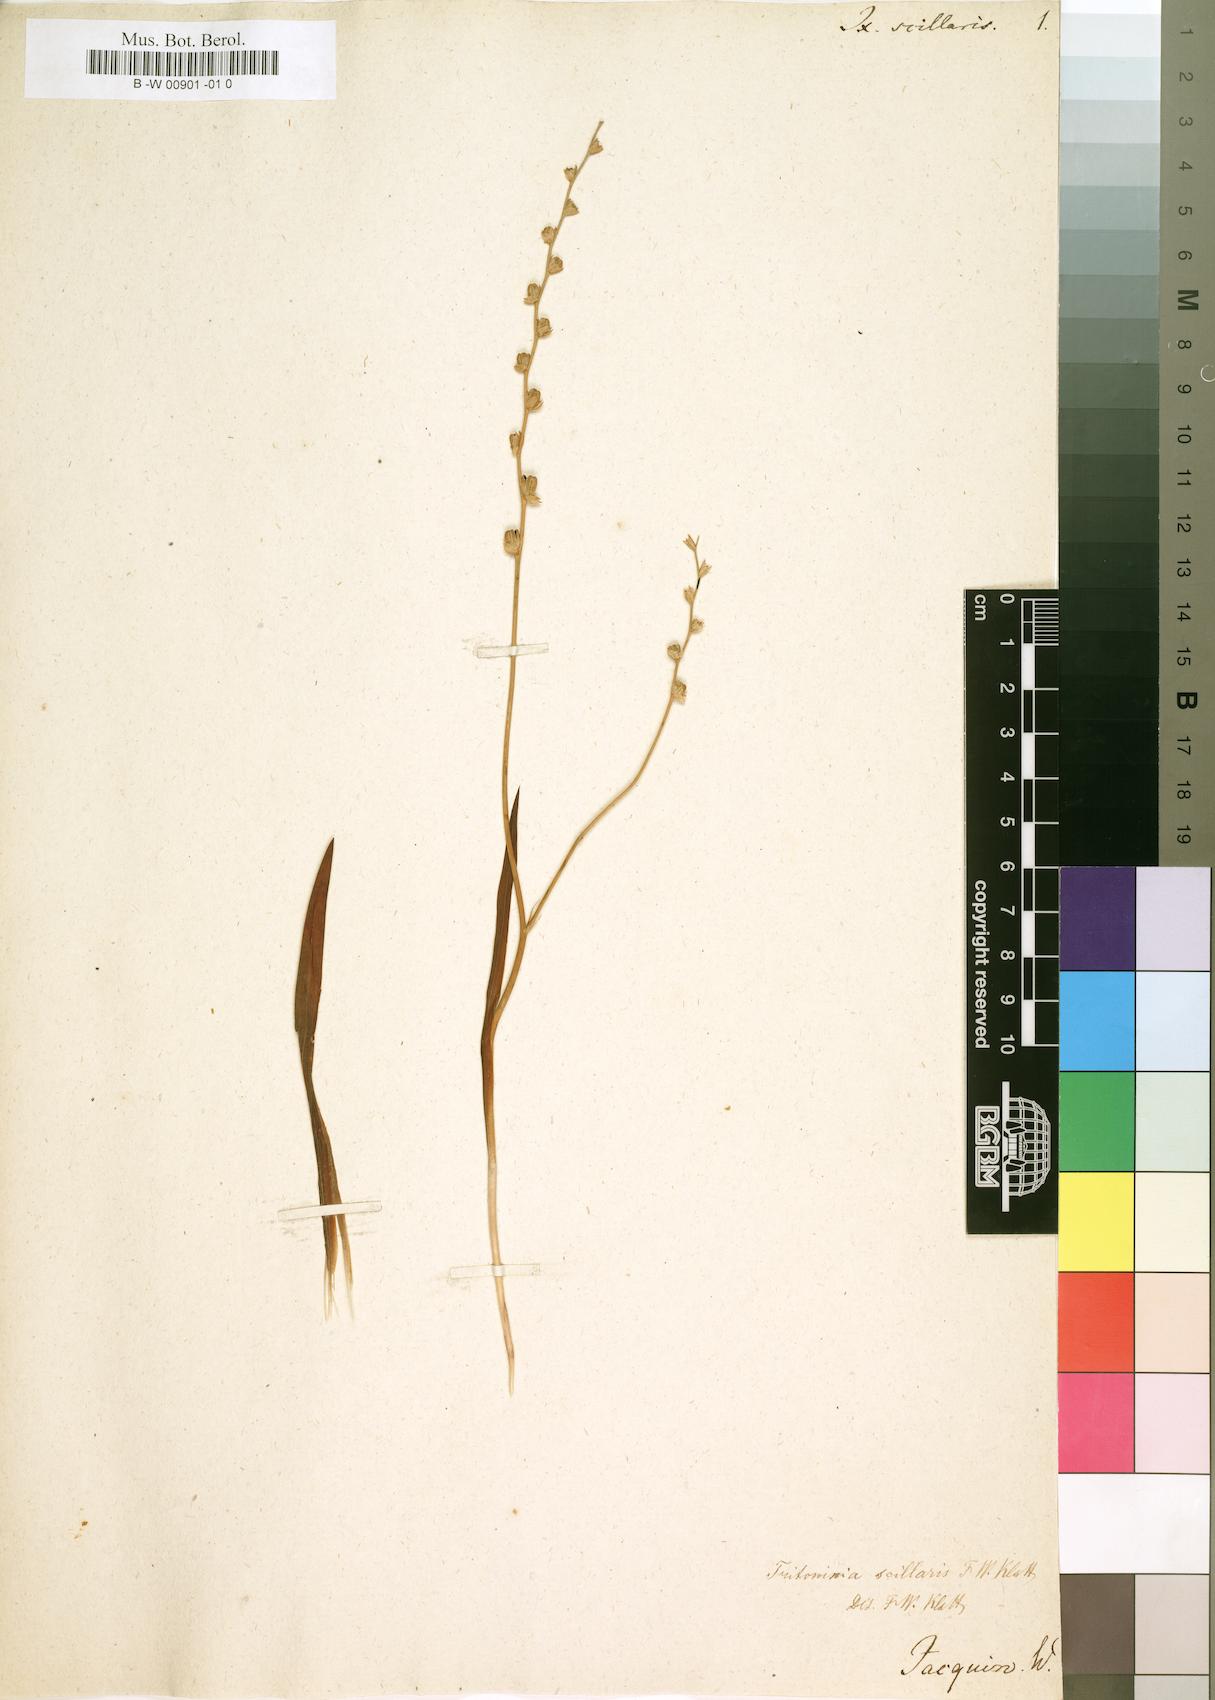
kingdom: Plantae
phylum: Tracheophyta
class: Liliopsida
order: Asparagales
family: Iridaceae
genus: Ixia
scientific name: Ixia scillaris
